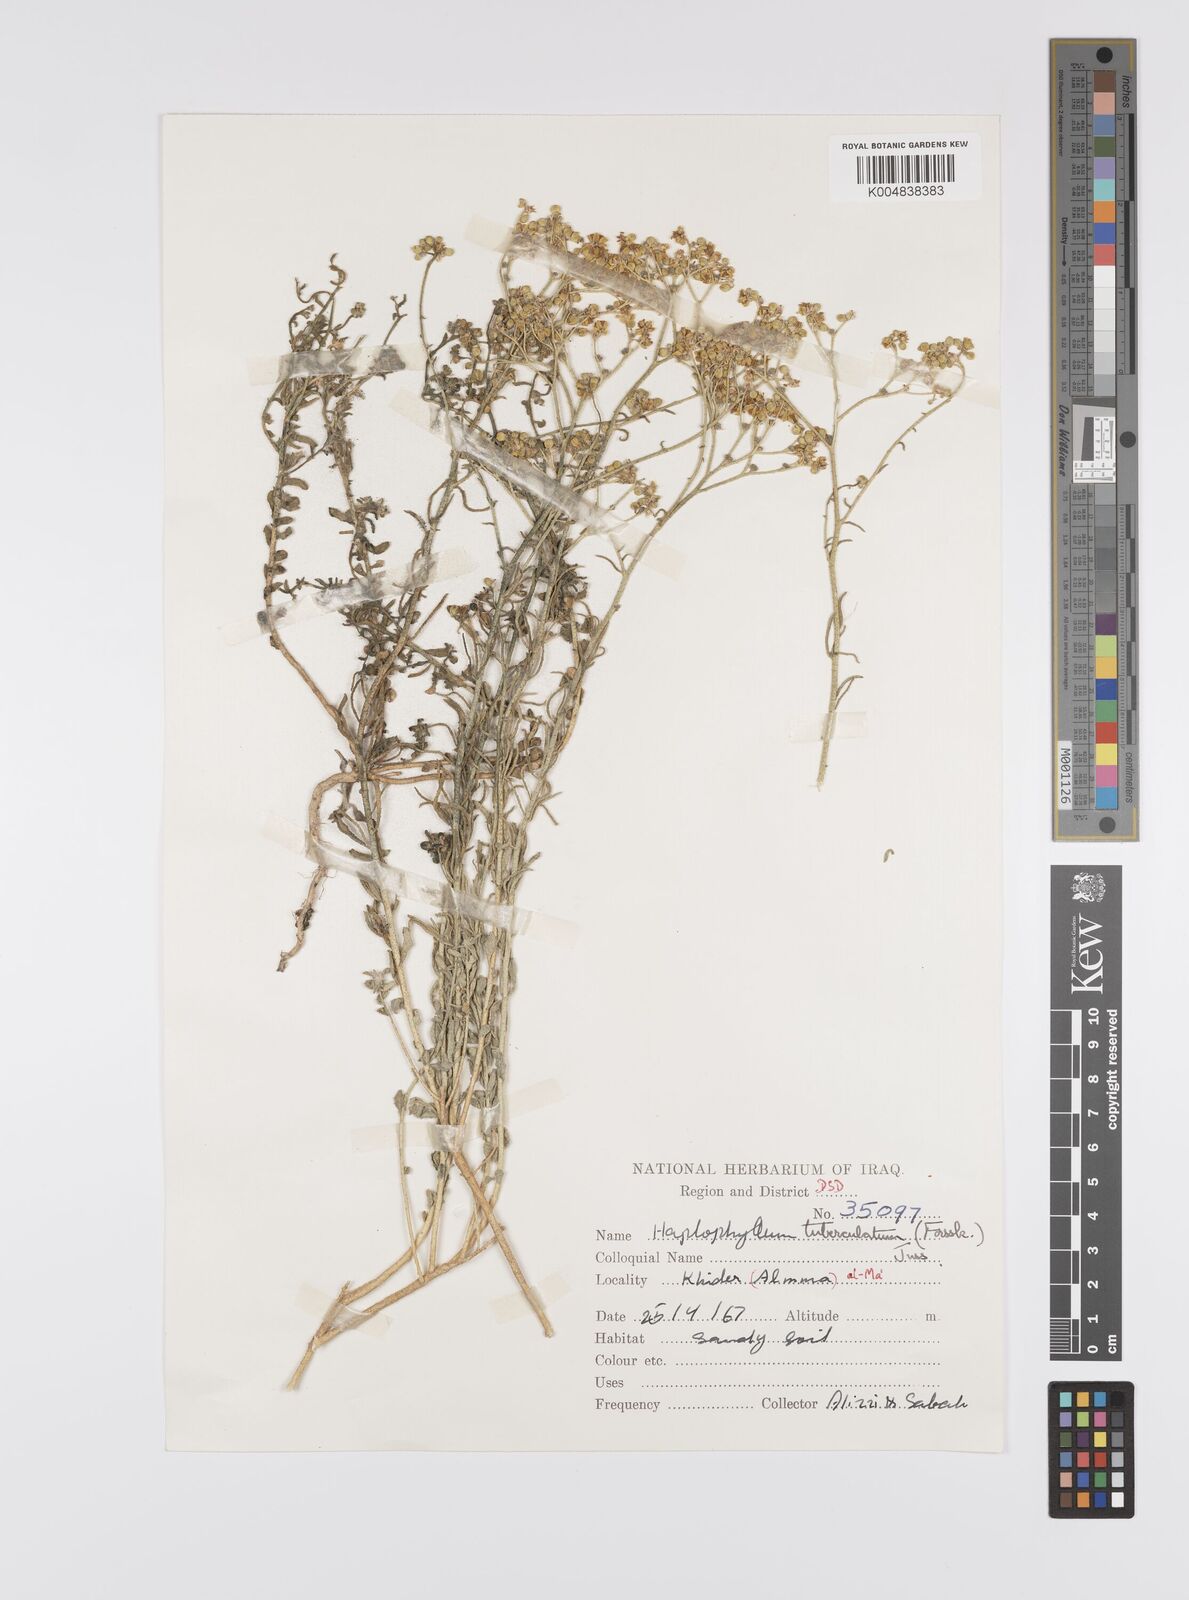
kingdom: Plantae
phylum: Tracheophyta
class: Magnoliopsida
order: Sapindales
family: Rutaceae
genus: Haplophyllum
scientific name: Haplophyllum tuberculatum
